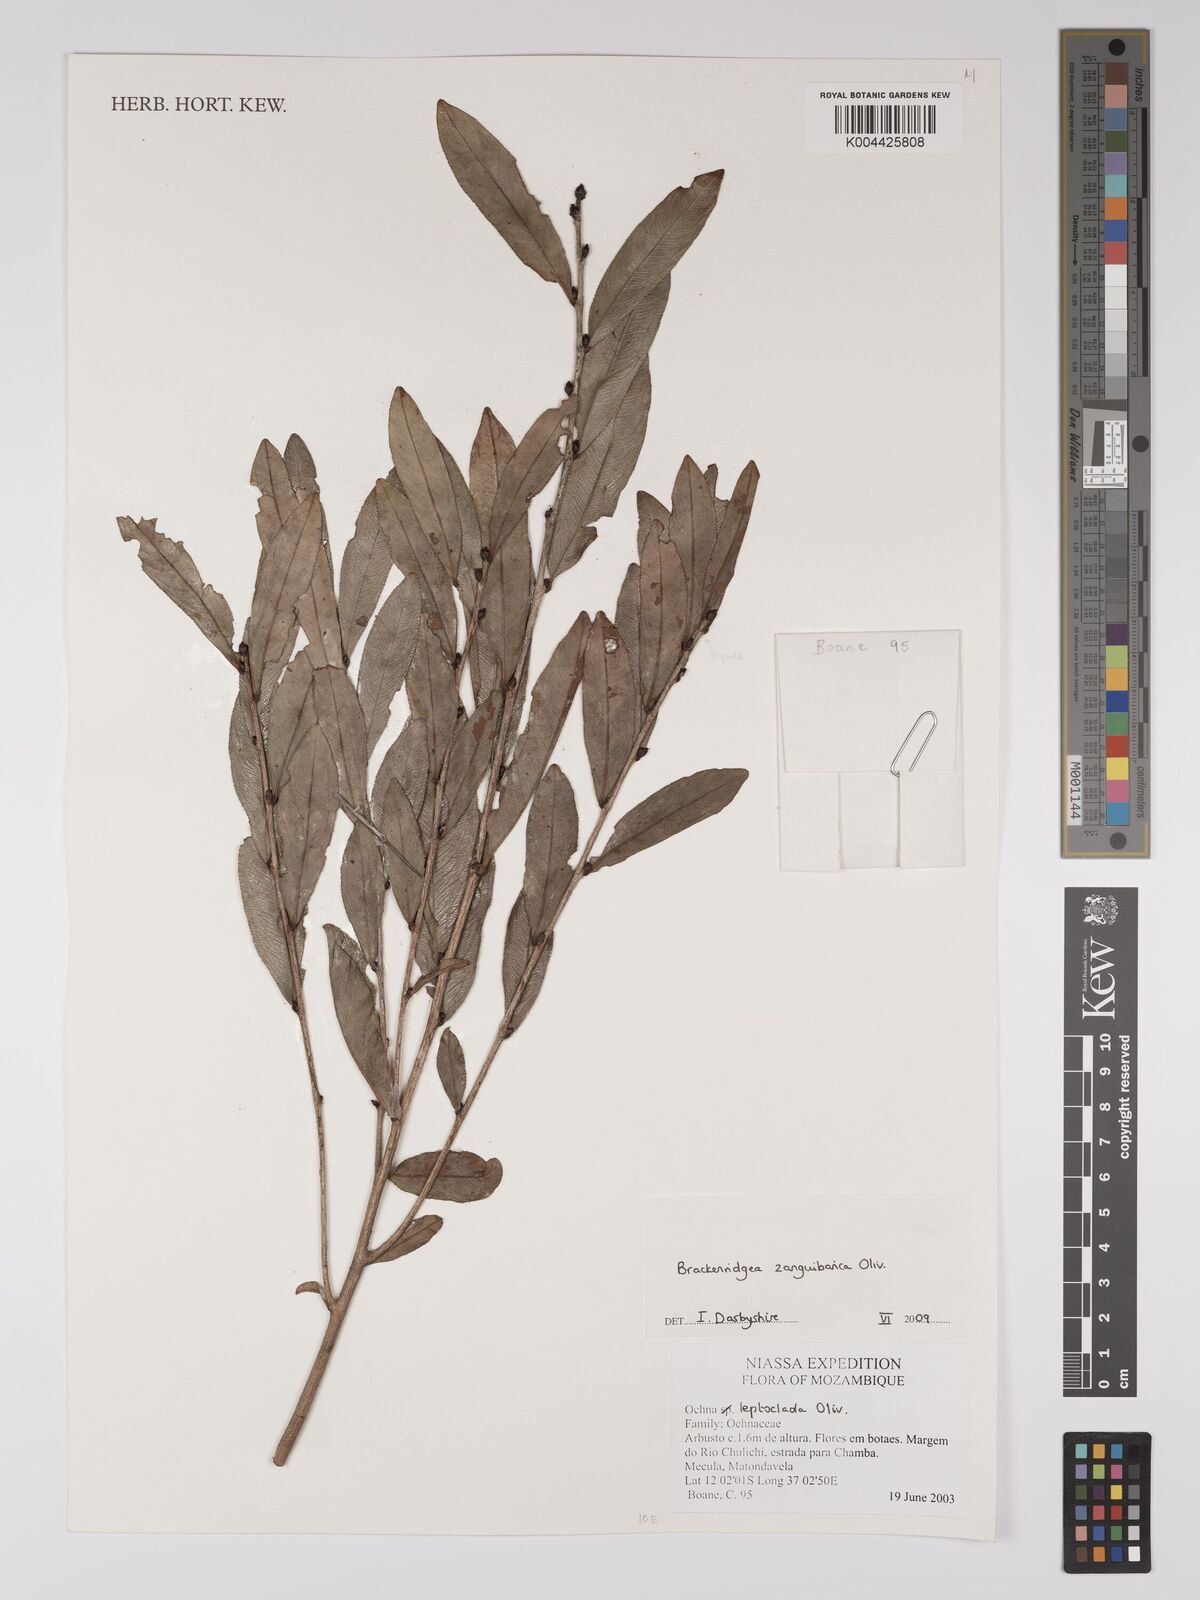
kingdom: Plantae
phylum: Tracheophyta
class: Magnoliopsida
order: Malpighiales
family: Ochnaceae
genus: Brackenridgea
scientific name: Brackenridgea zanguebarica
